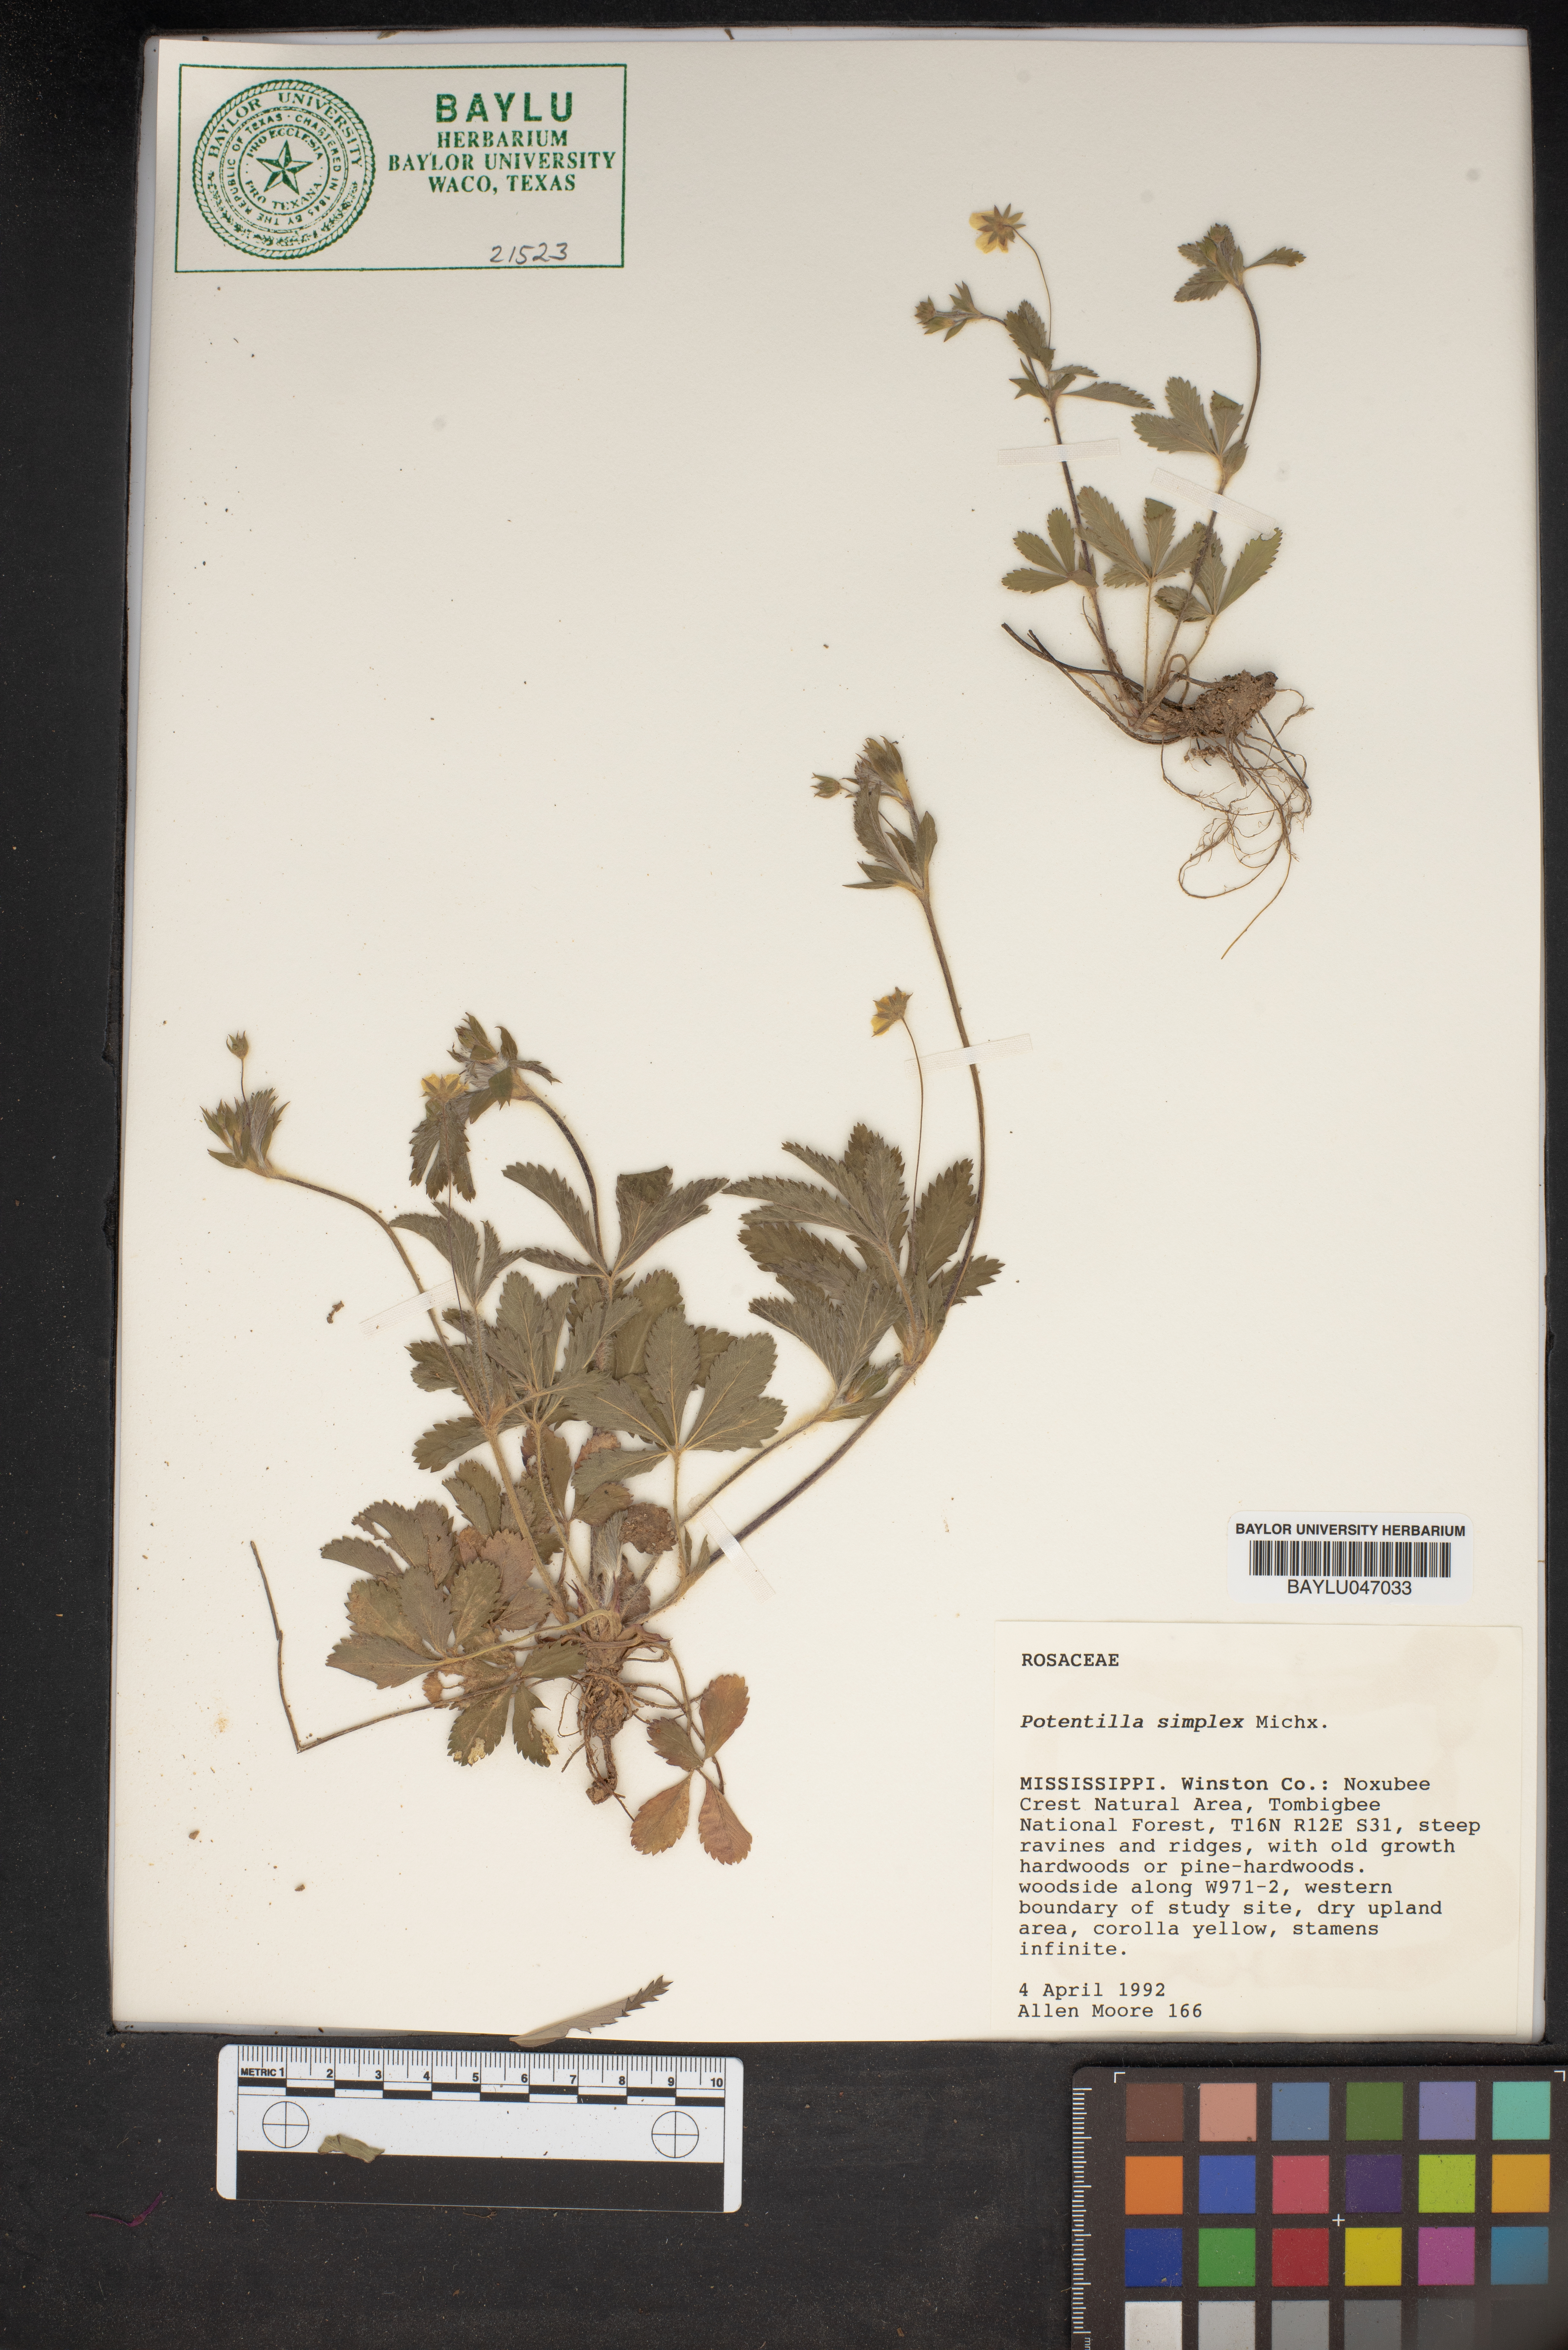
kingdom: Plantae
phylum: Tracheophyta
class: Magnoliopsida
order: Rosales
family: Rosaceae
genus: Potentilla
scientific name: Potentilla simplex
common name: Old field cinquefoil
